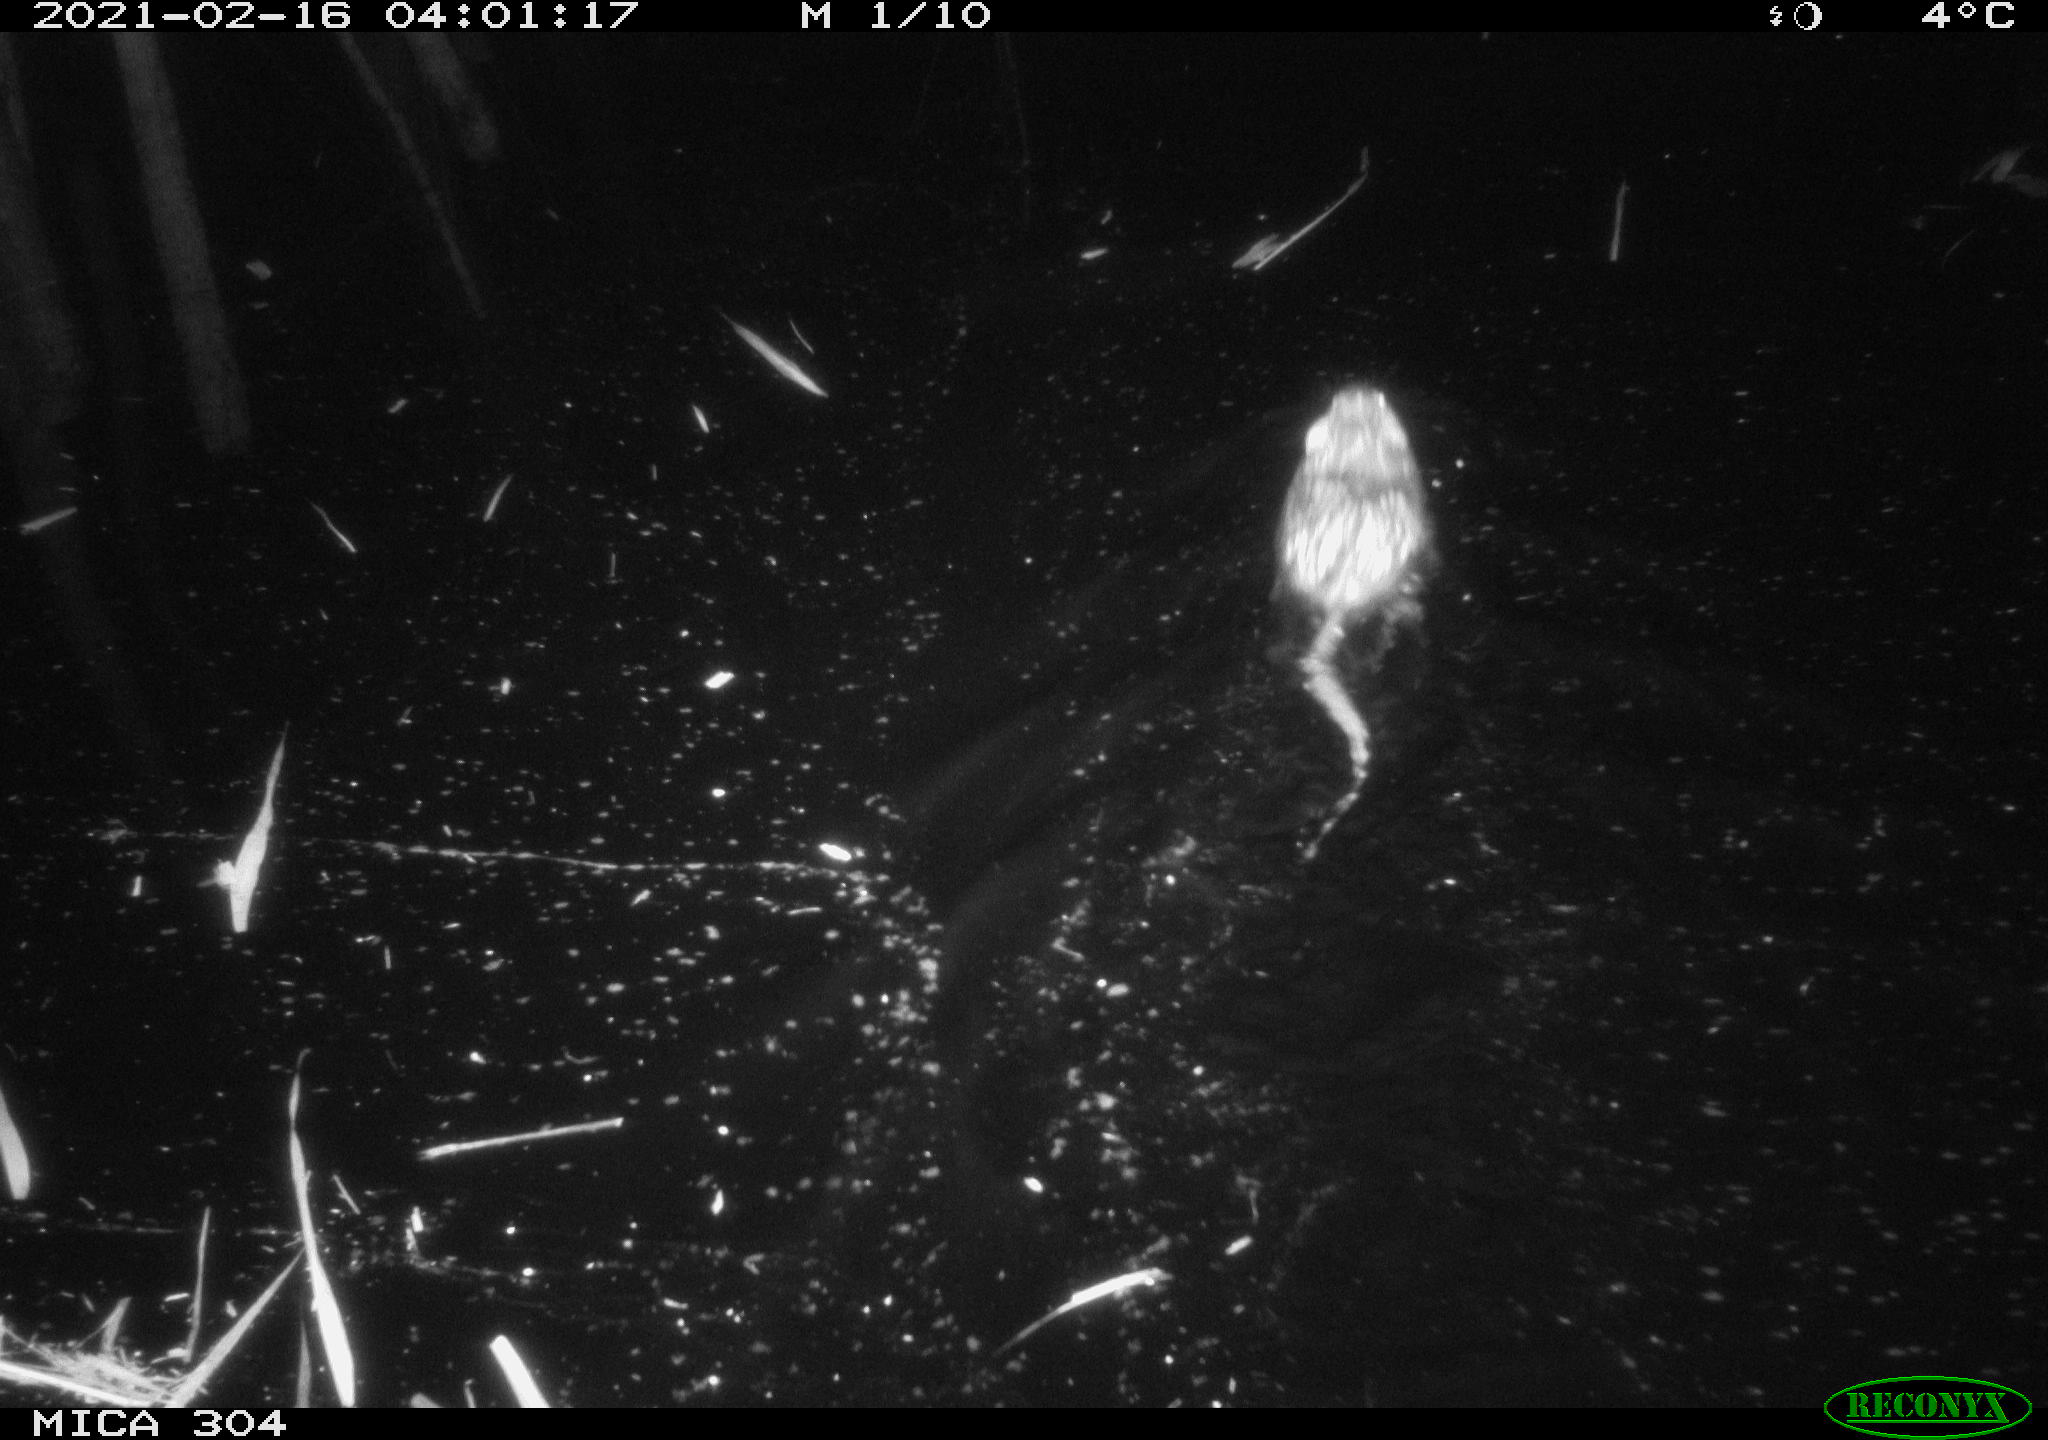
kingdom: Animalia
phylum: Chordata
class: Mammalia
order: Rodentia
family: Cricetidae
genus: Ondatra
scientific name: Ondatra zibethicus
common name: Muskrat
